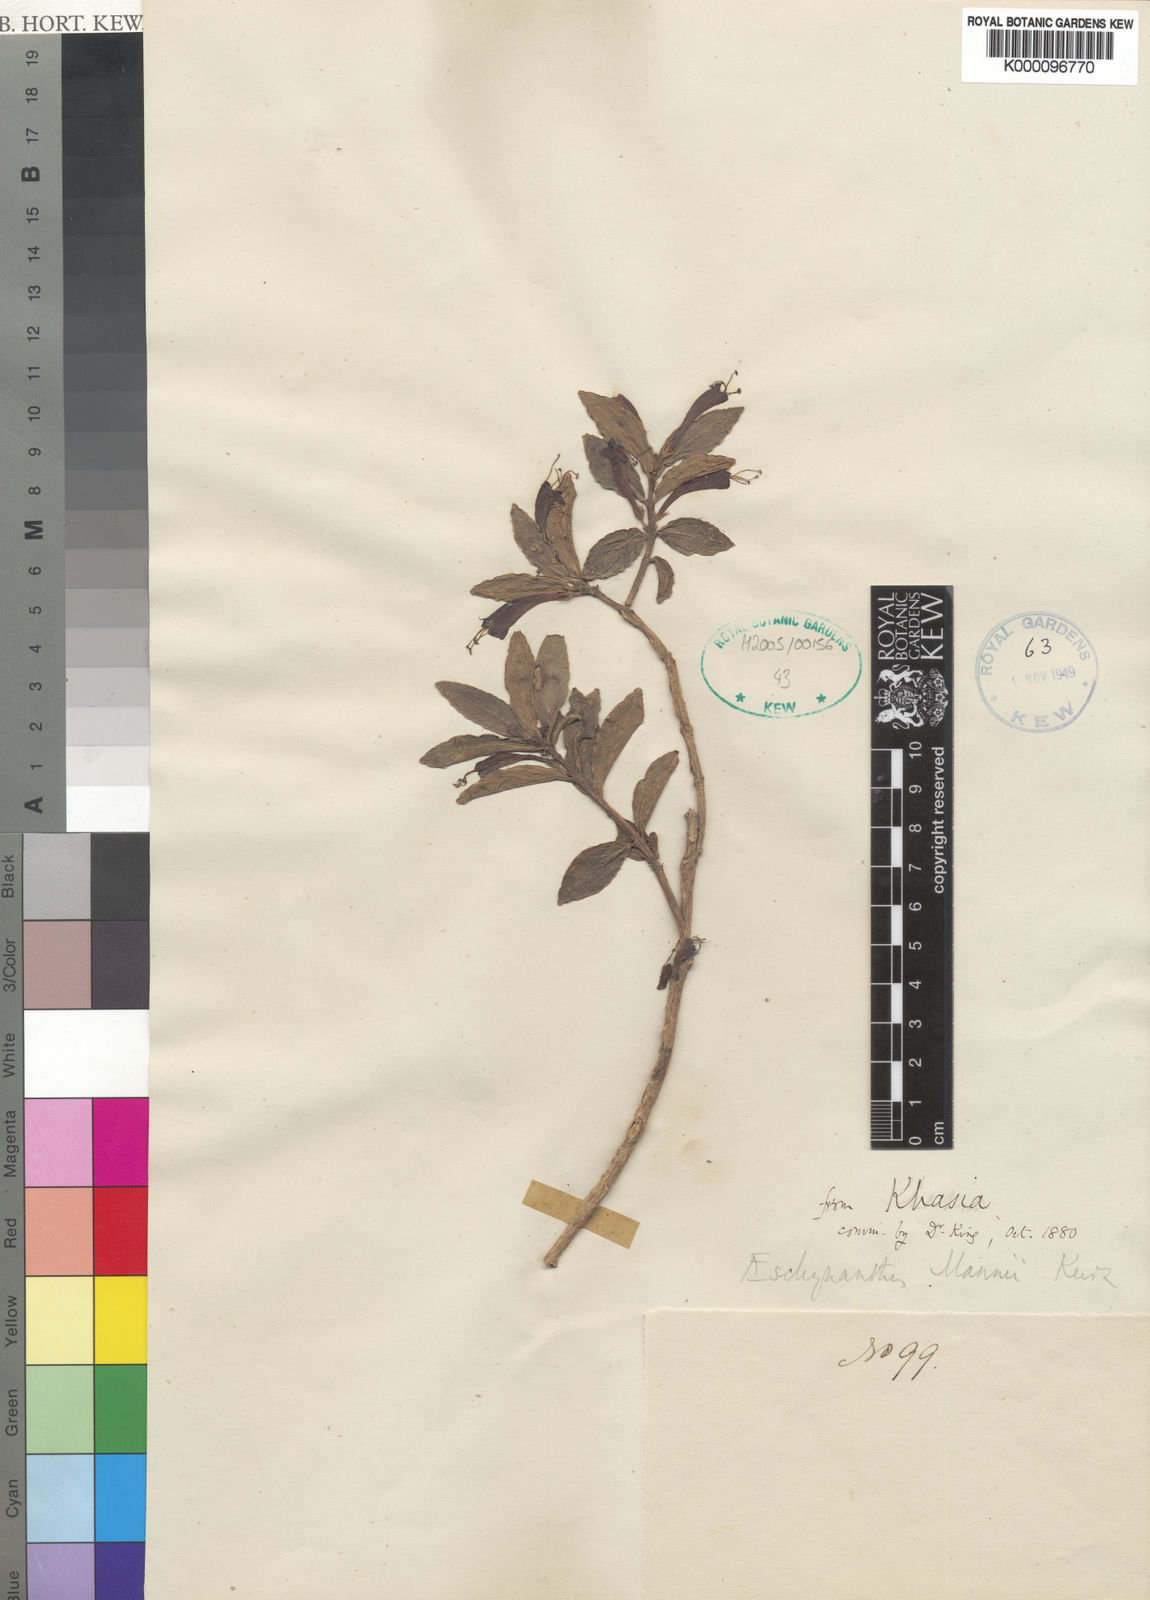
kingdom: Plantae
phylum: Tracheophyta
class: Magnoliopsida
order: Lamiales
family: Gesneriaceae
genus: Aeschynanthus
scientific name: Aeschynanthus mannii
